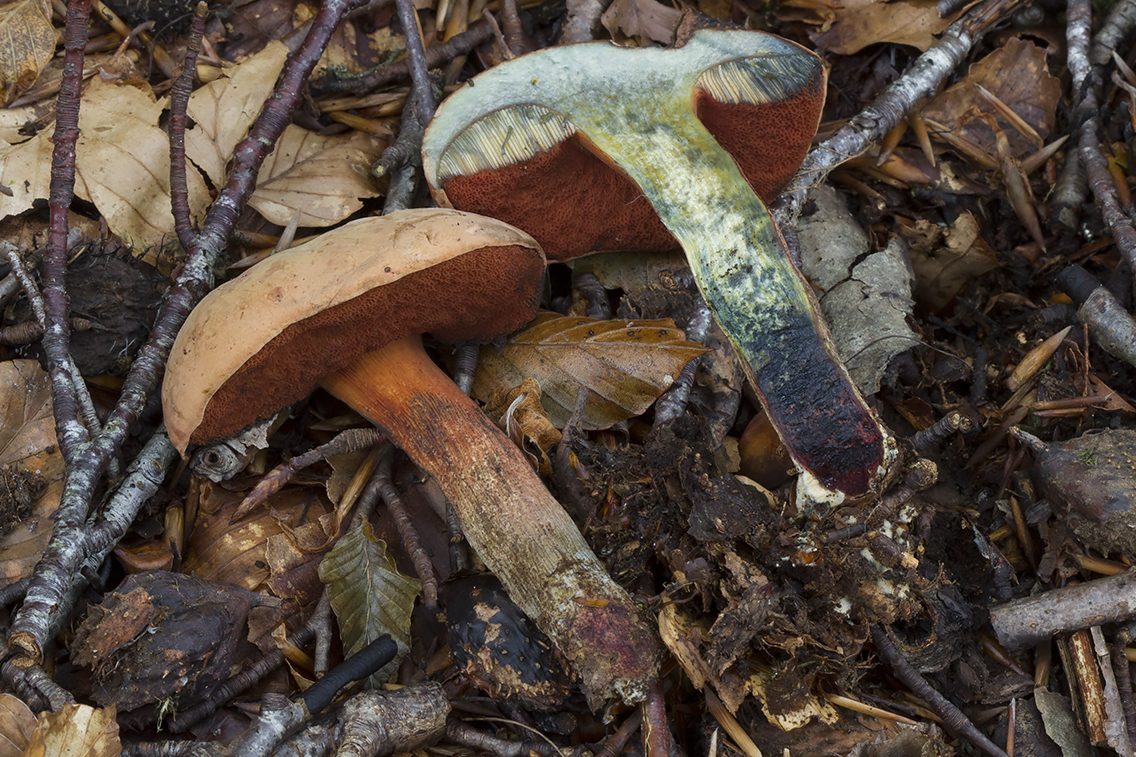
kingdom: Fungi
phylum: Basidiomycota
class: Agaricomycetes
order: Boletales
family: Boletaceae
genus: Suillellus
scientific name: Suillellus mendax
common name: joker-indigorørhat
